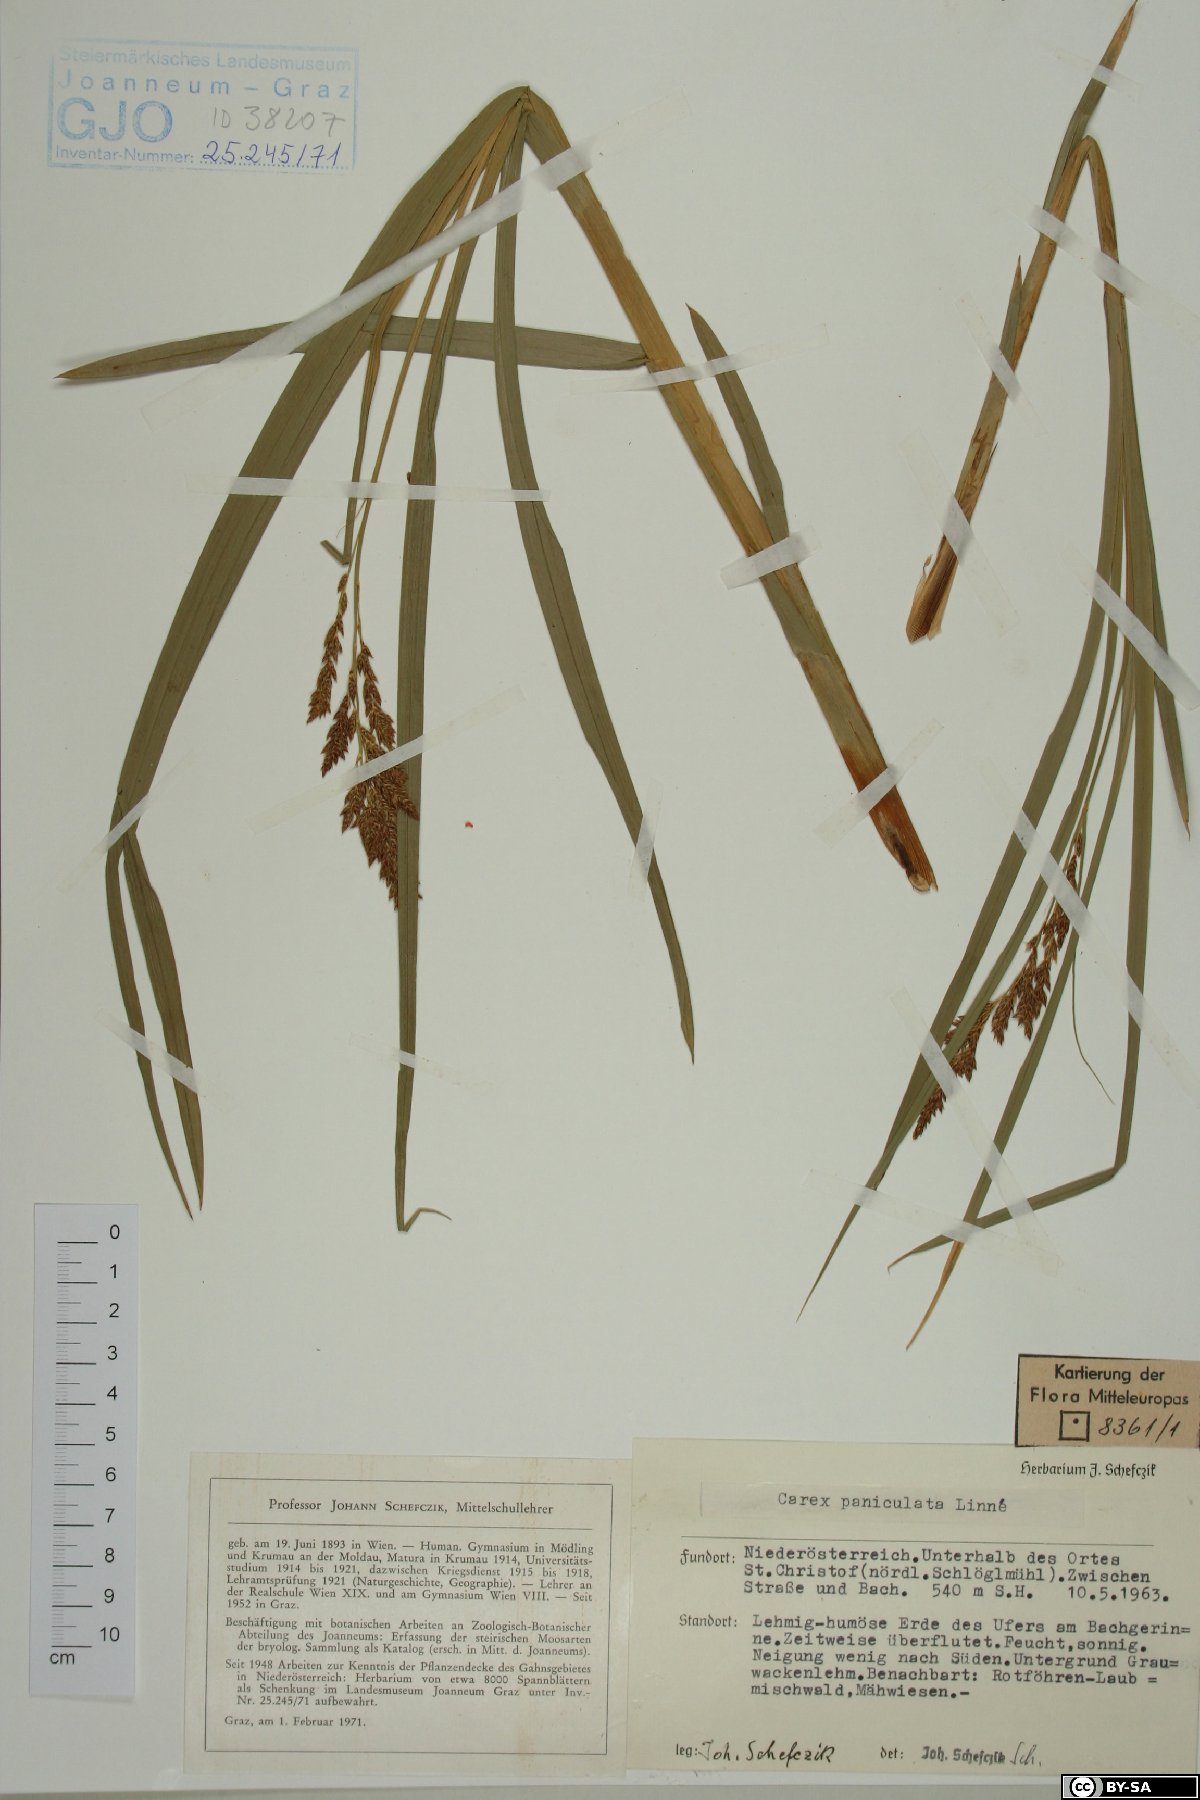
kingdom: Plantae
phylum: Tracheophyta
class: Liliopsida
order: Poales
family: Cyperaceae
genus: Carex
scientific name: Carex paniculata
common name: Greater tussock-sedge
